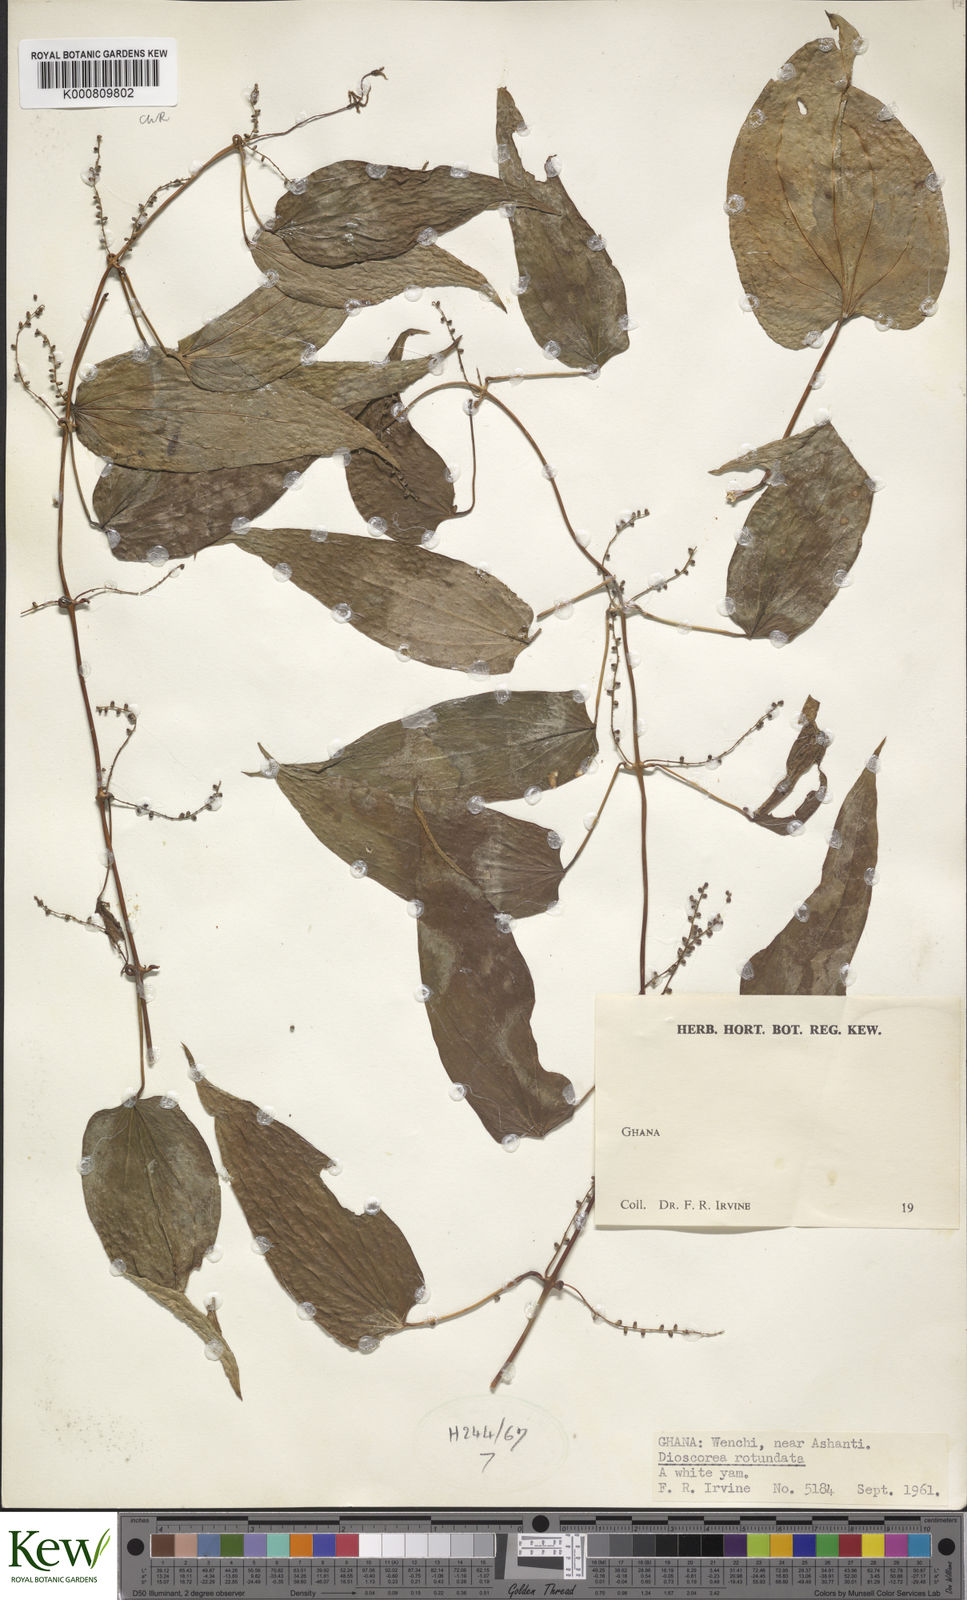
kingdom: Plantae
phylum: Tracheophyta
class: Liliopsida
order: Dioscoreales
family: Dioscoreaceae
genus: Dioscorea
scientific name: Dioscorea cayenensis
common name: Attoto yam
